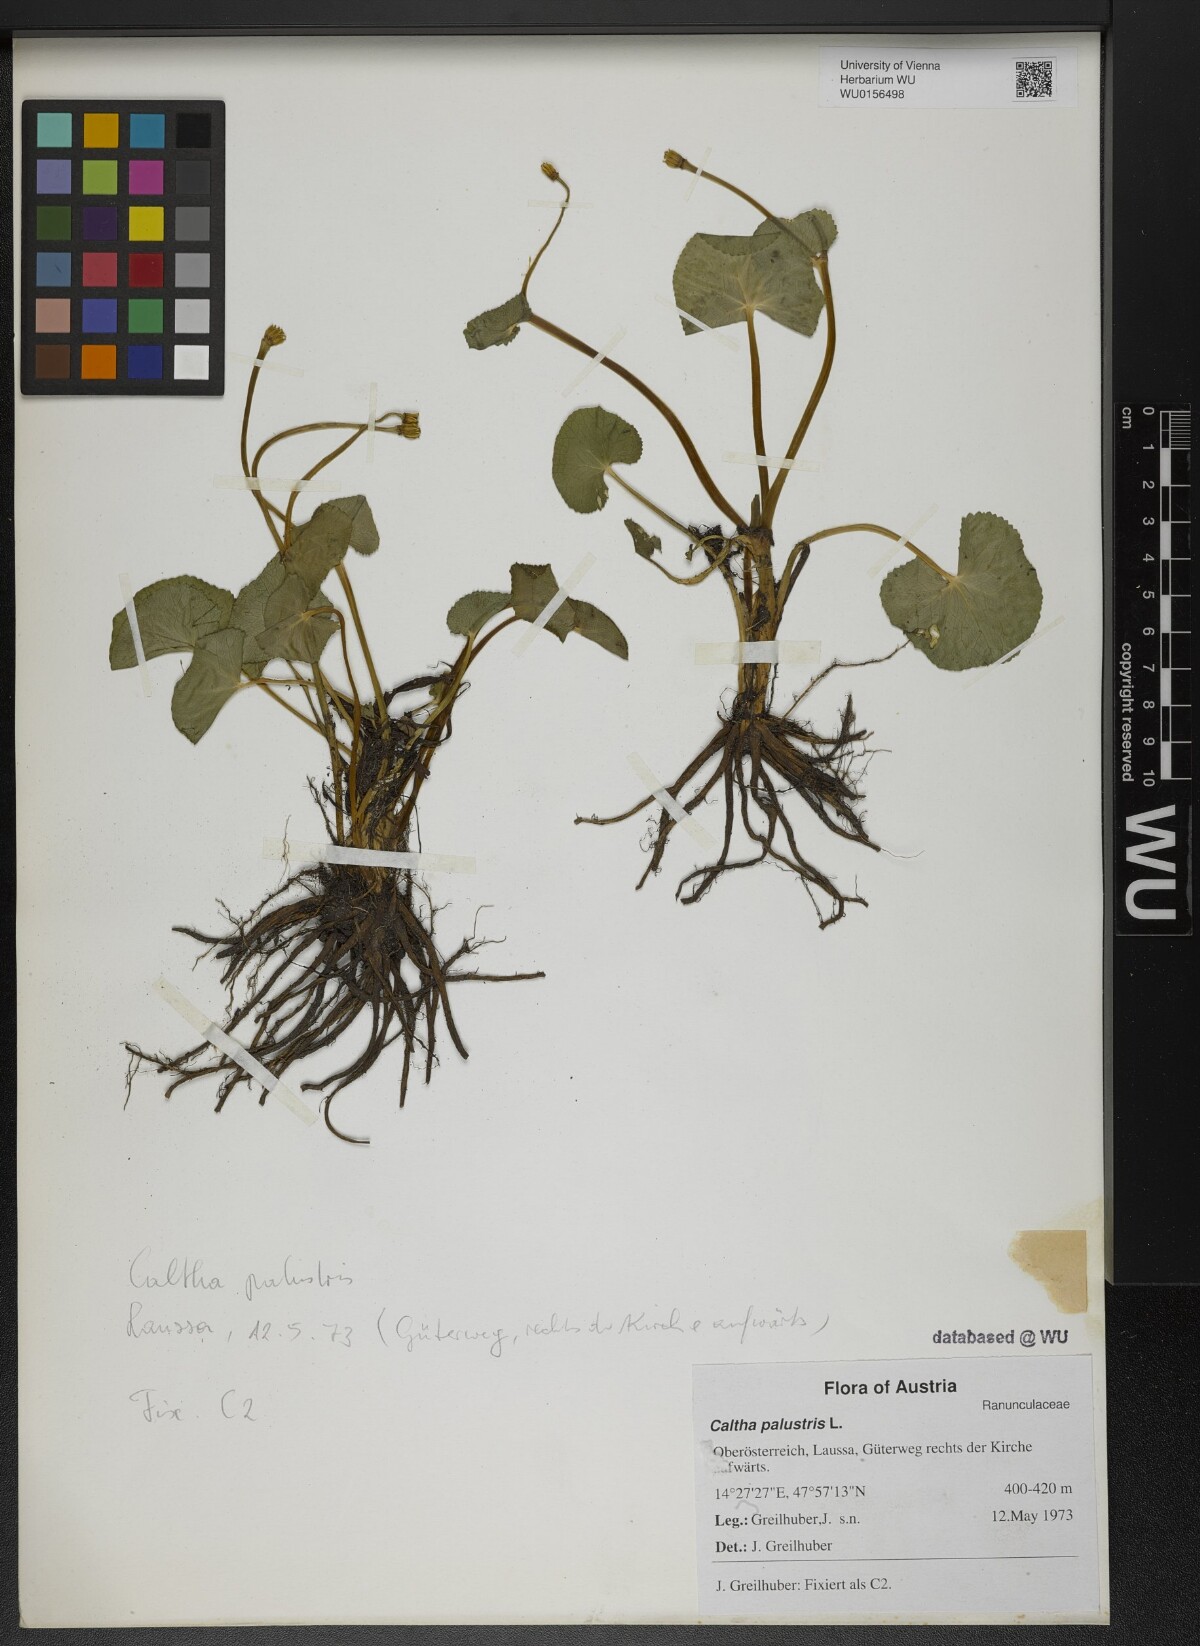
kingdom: Plantae
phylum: Tracheophyta
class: Magnoliopsida
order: Ranunculales
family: Ranunculaceae
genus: Caltha
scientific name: Caltha palustris
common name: Marsh marigold
